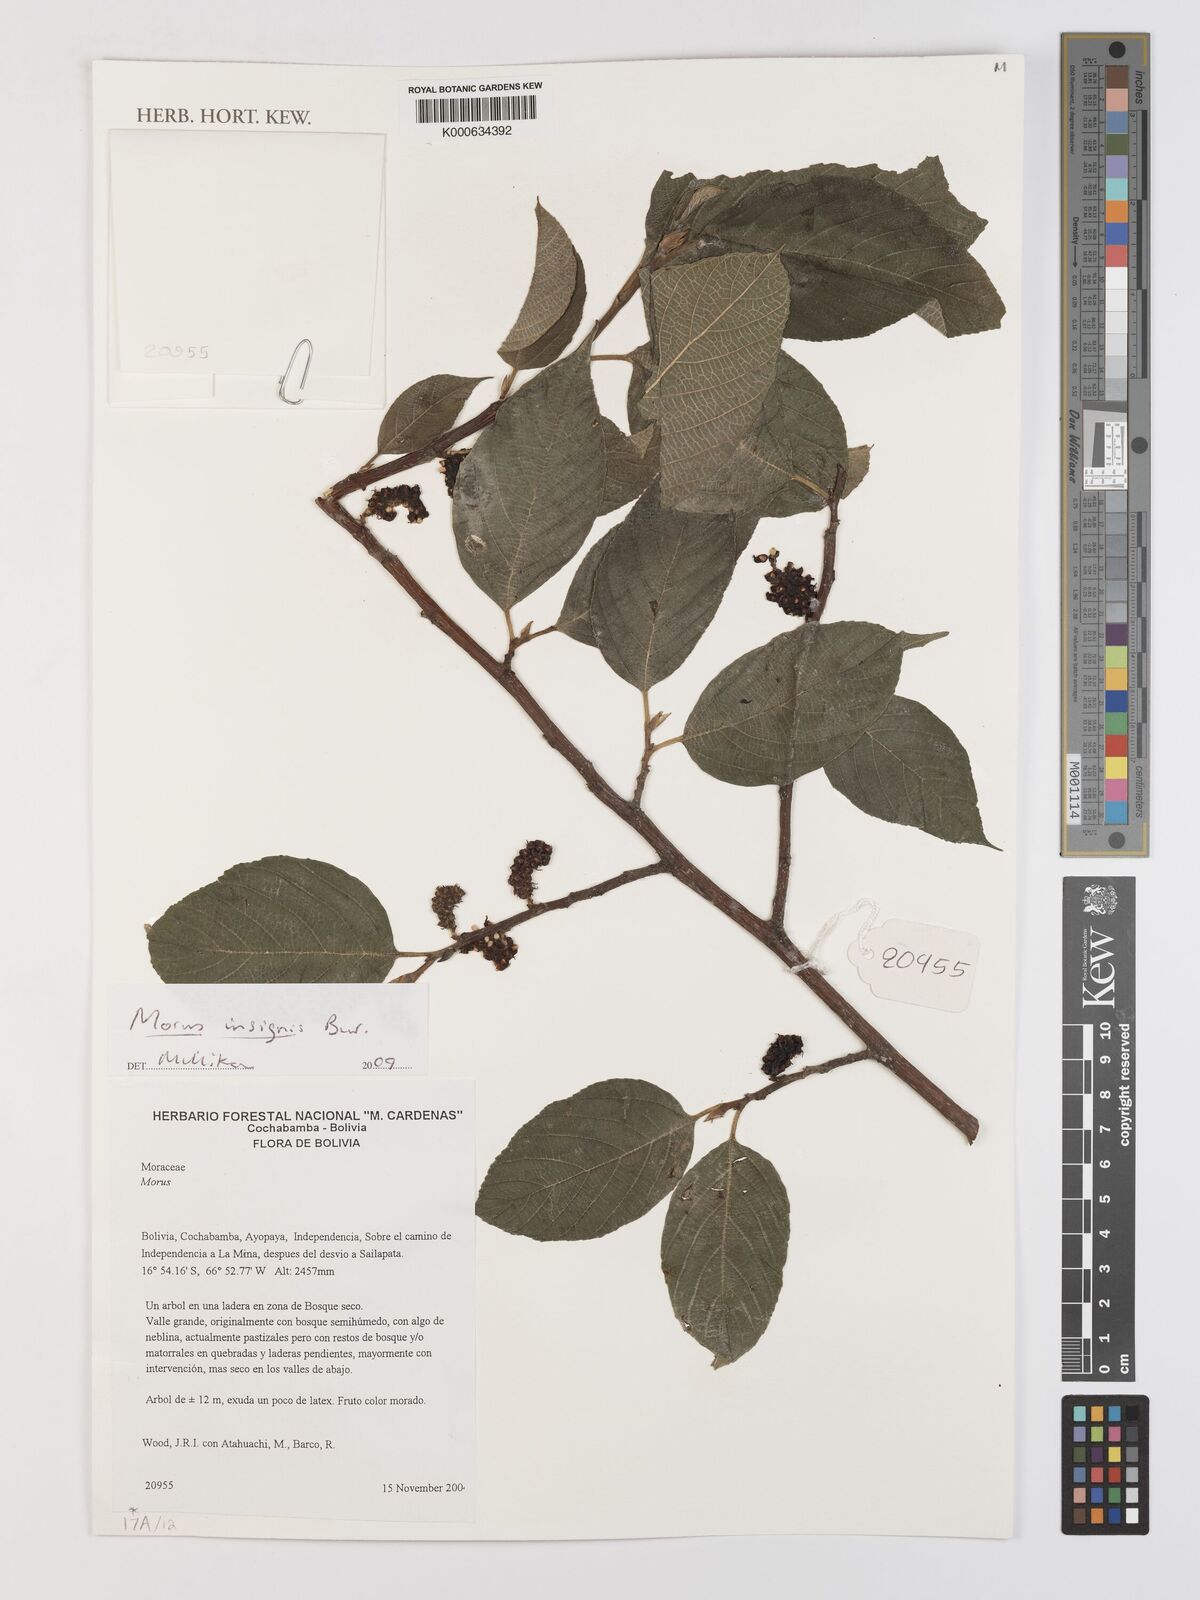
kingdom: Plantae
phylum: Tracheophyta
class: Magnoliopsida
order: Rosales
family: Moraceae
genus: Paratrophis
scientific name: Paratrophis insignis
